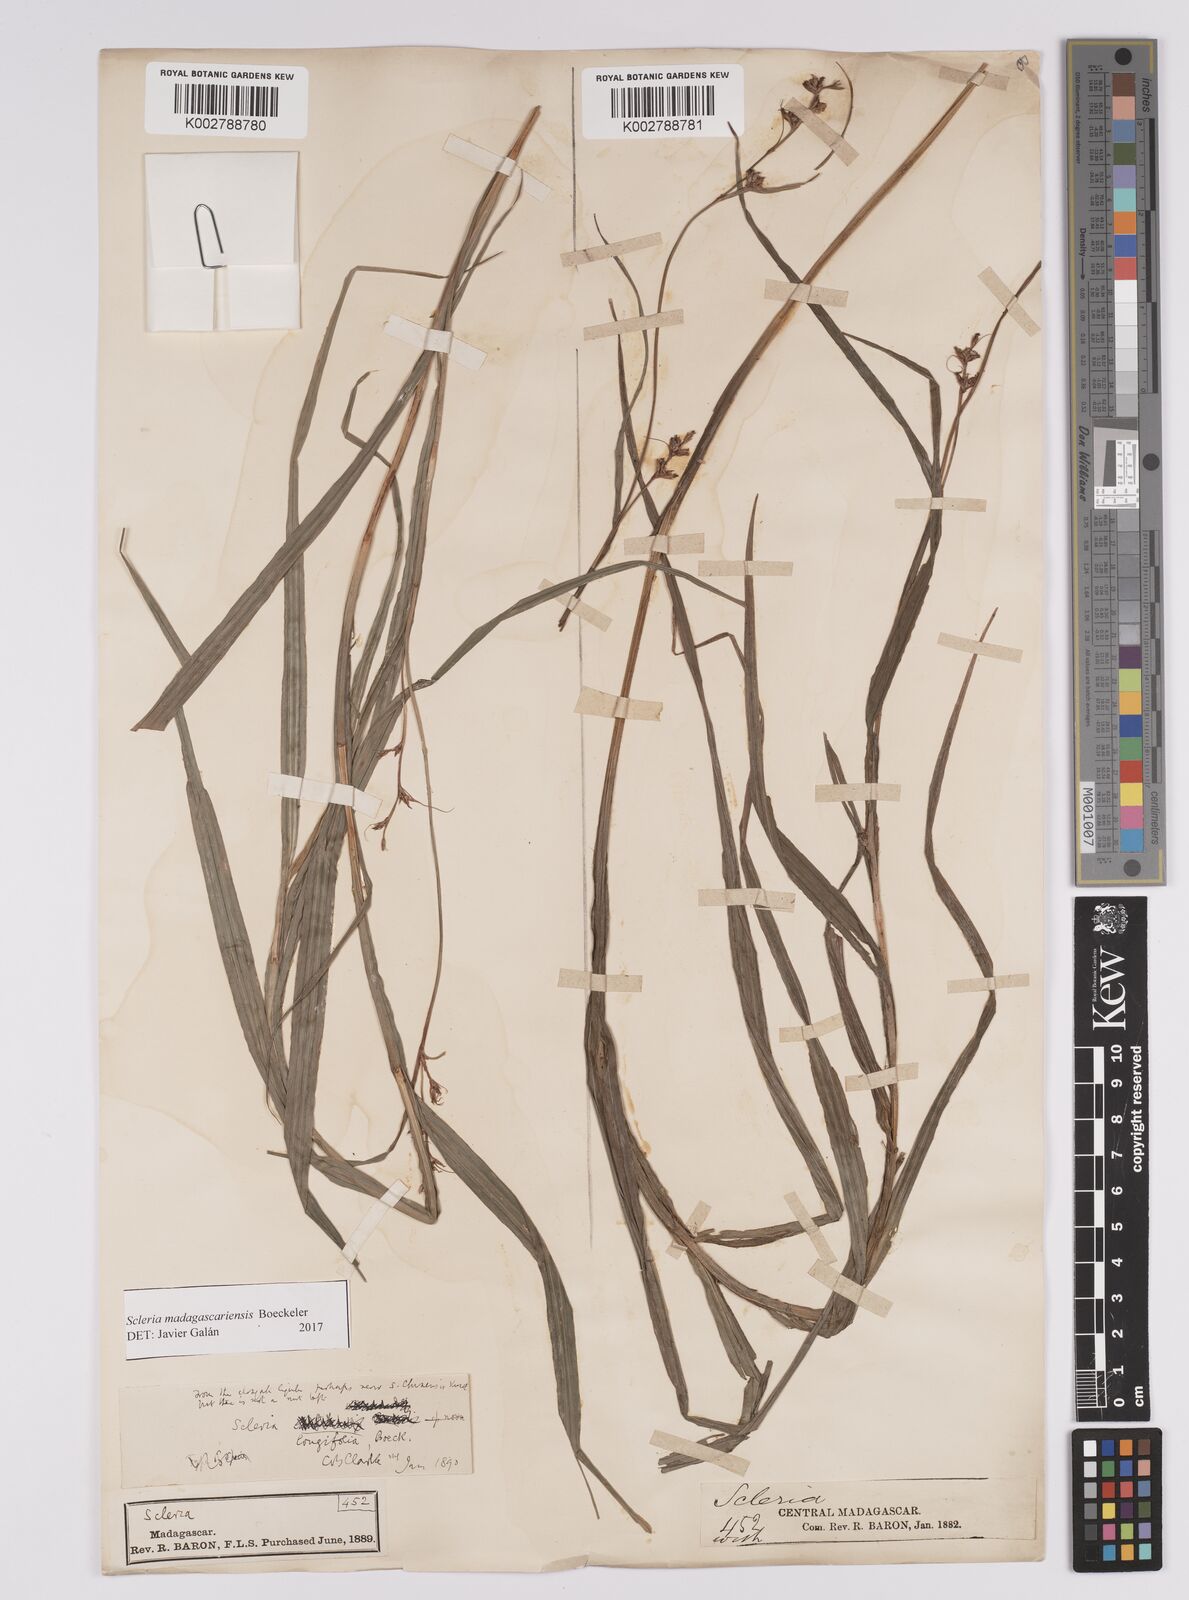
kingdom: Plantae
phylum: Tracheophyta
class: Liliopsida
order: Poales
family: Cyperaceae
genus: Scleria
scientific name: Scleria madagascariensis
